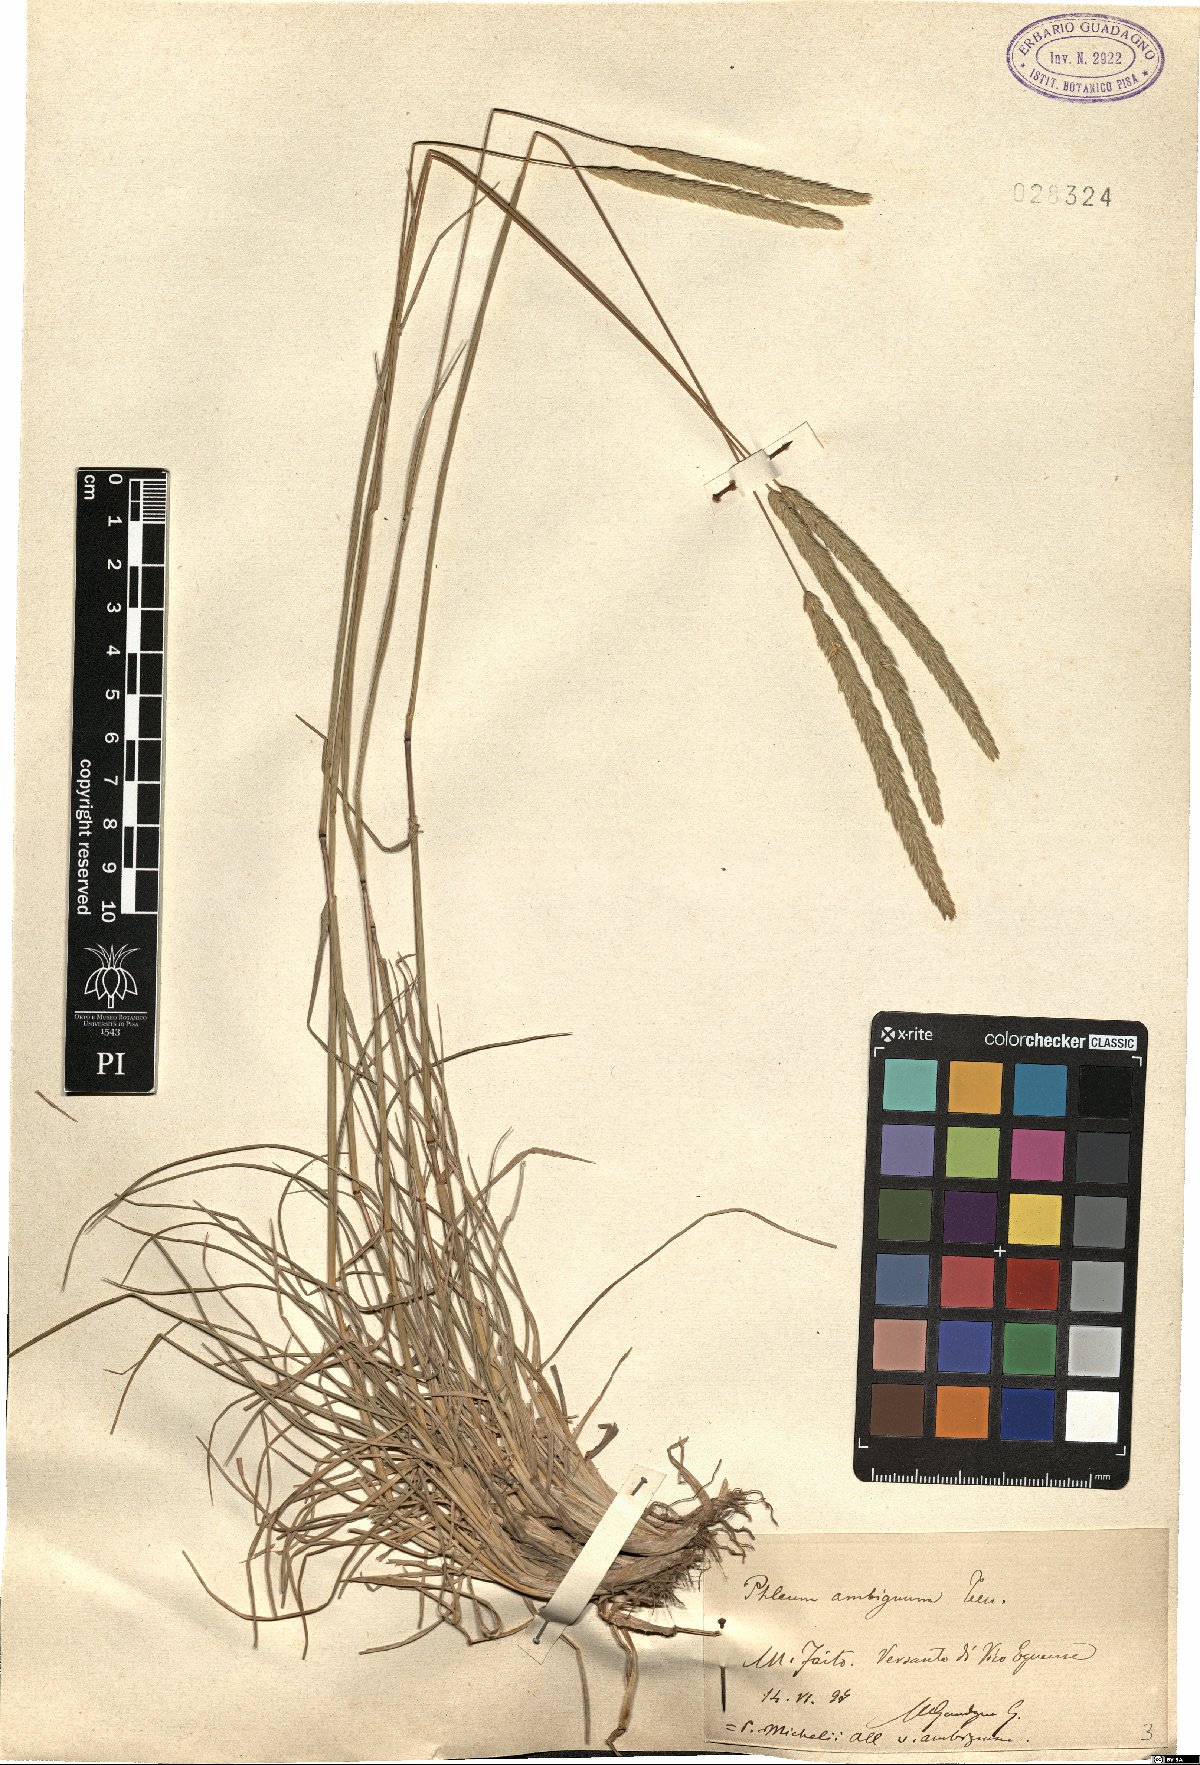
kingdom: Plantae
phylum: Tracheophyta
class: Liliopsida
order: Poales
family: Poaceae
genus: Phleum
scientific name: Phleum hirsutum
